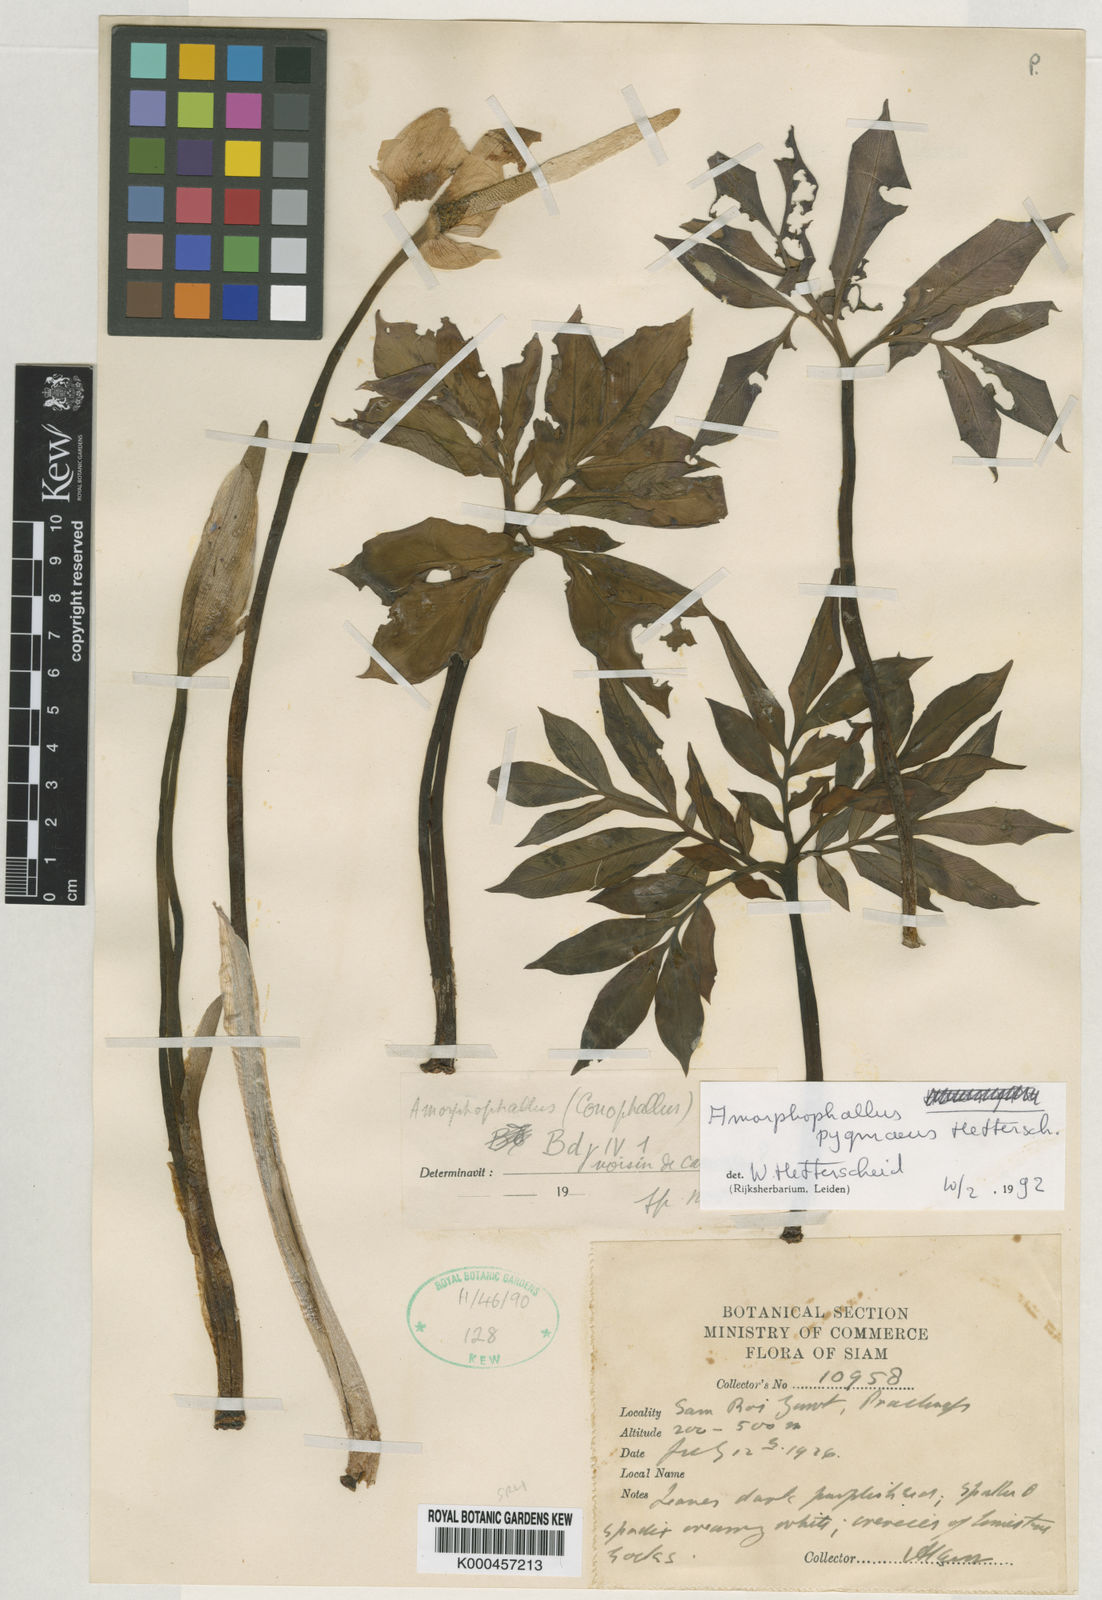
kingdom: Plantae
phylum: Tracheophyta
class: Liliopsida
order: Alismatales
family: Araceae
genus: Amorphophallus
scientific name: Amorphophallus pygmaeus
